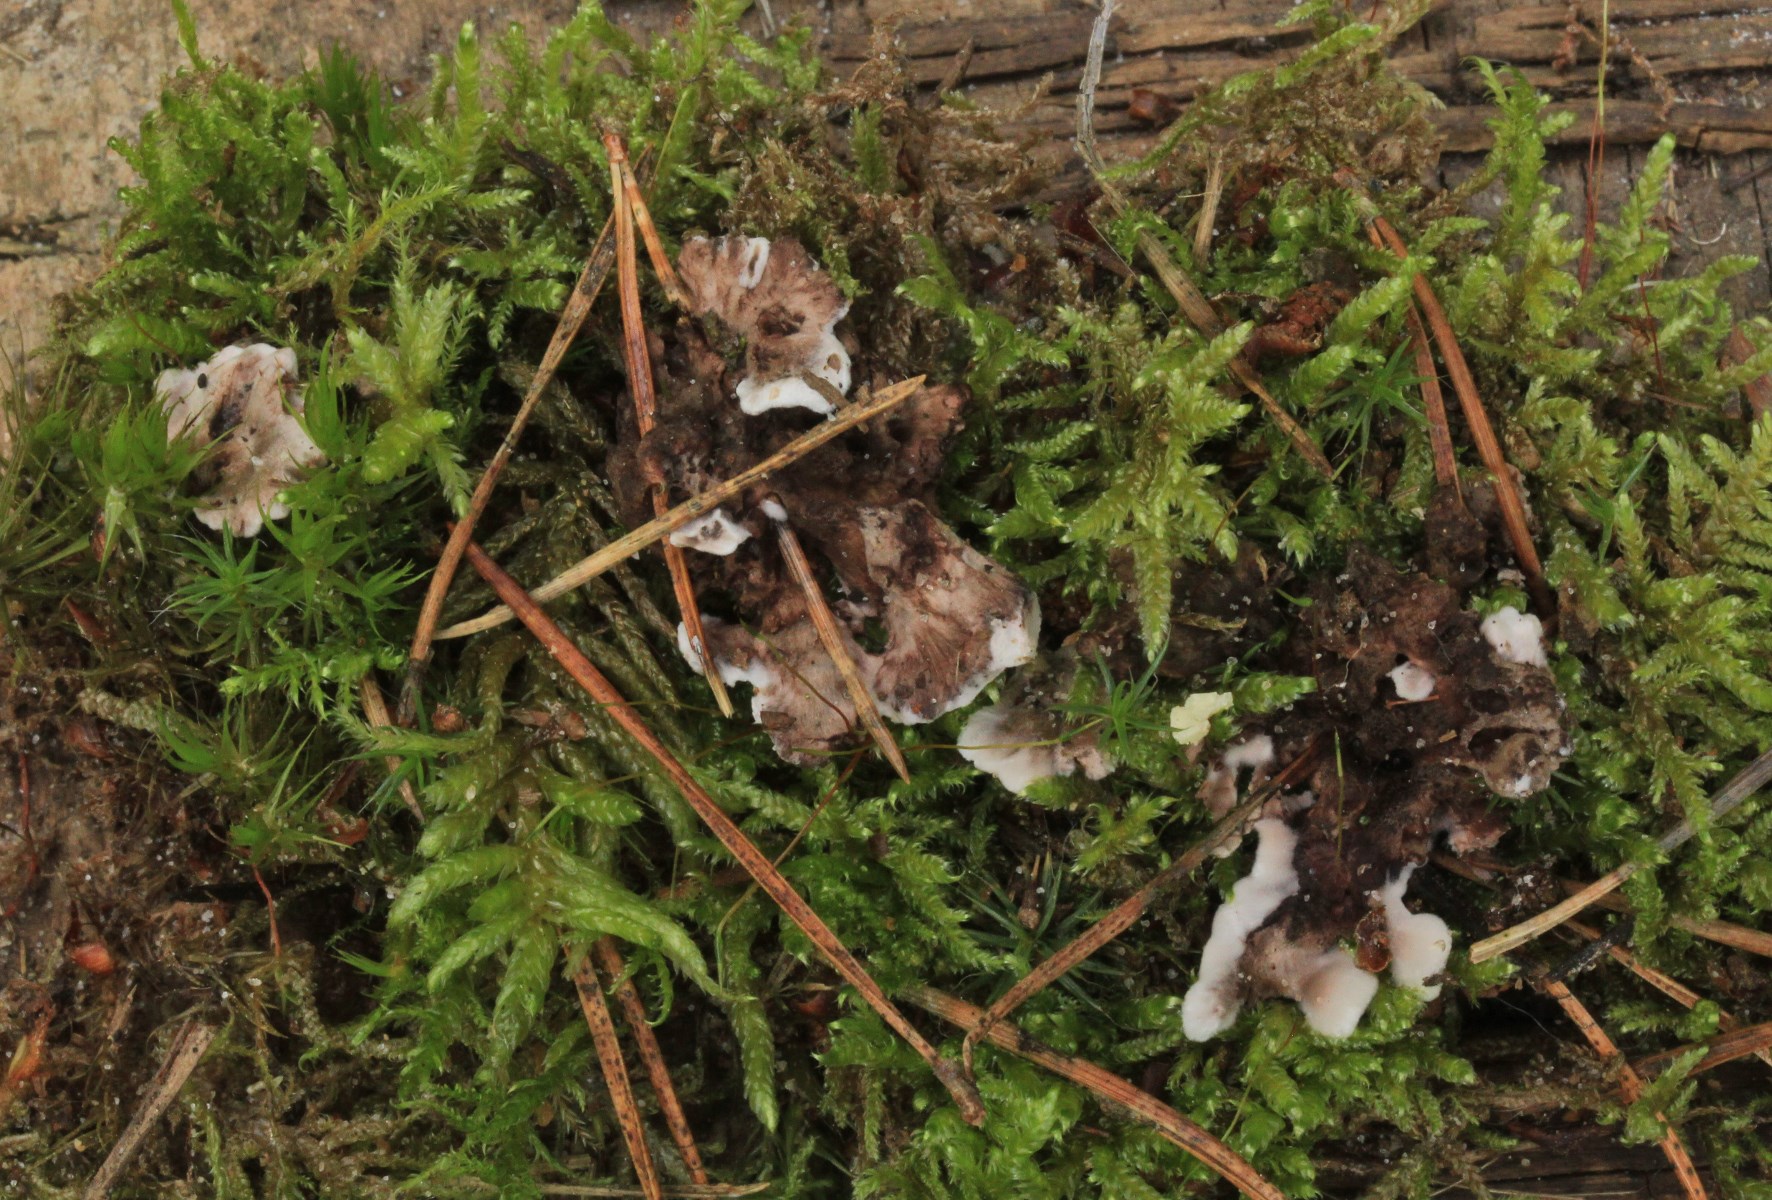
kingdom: Fungi
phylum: Basidiomycota
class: Agaricomycetes
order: Thelephorales
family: Thelephoraceae
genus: Phellodon
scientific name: Phellodon tomentosus
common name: tragtformet duftpigsvamp
